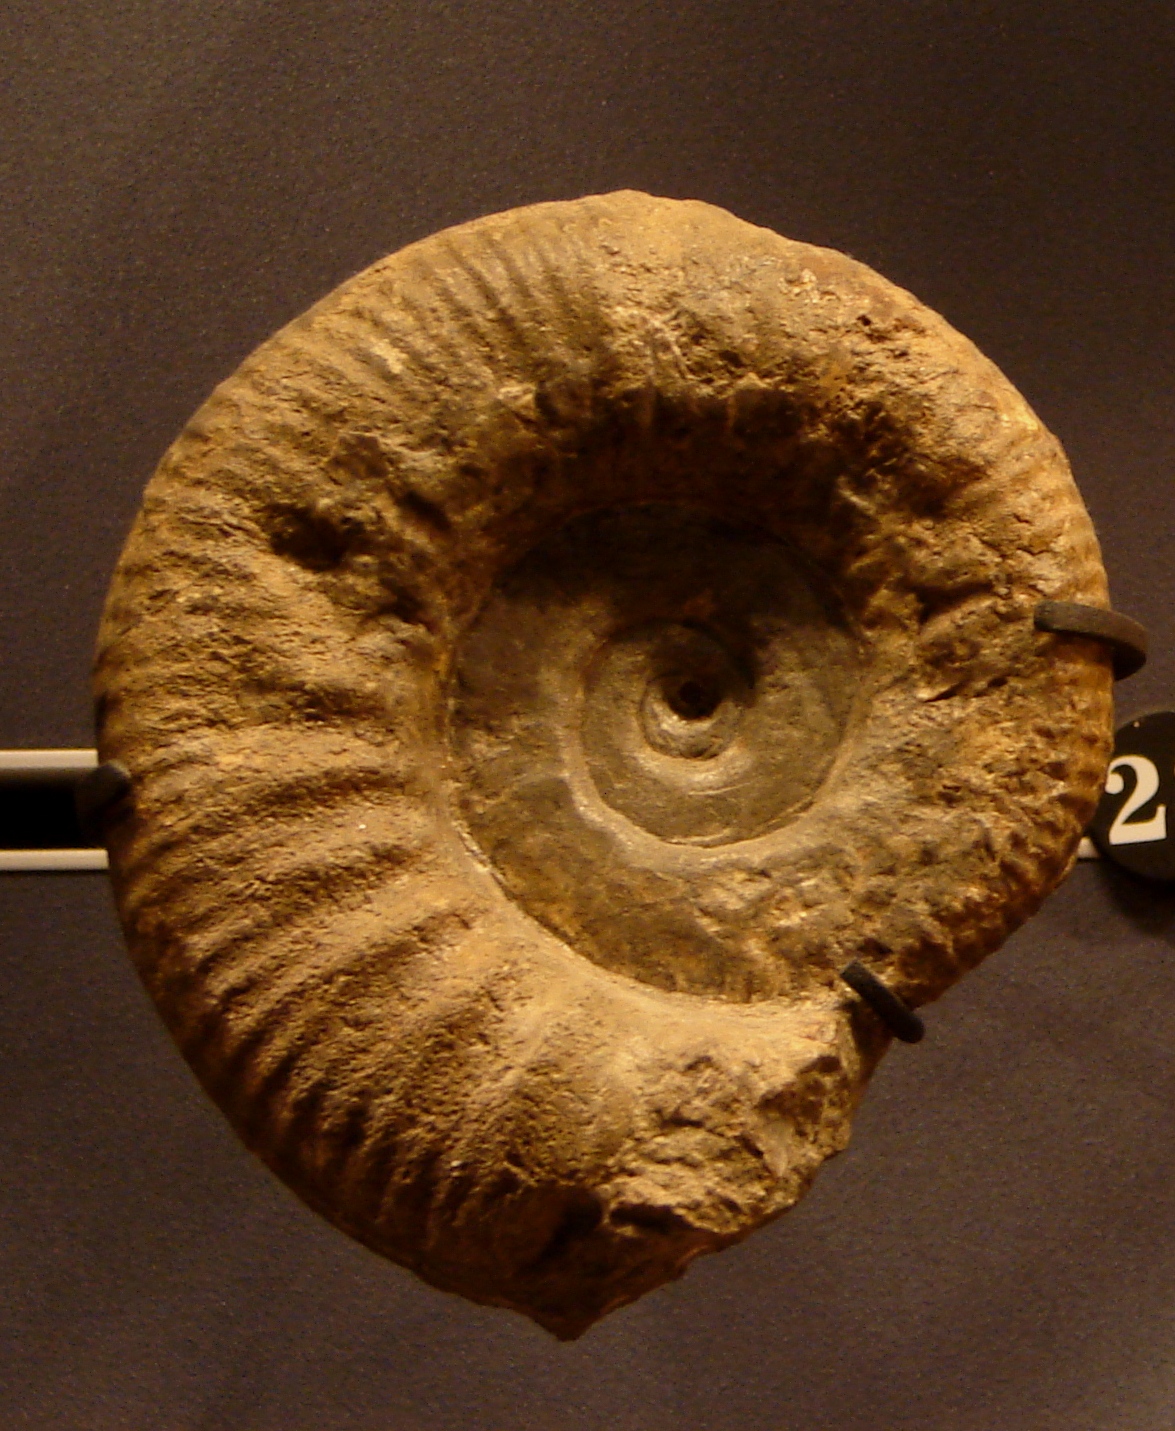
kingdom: Animalia
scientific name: Animalia
